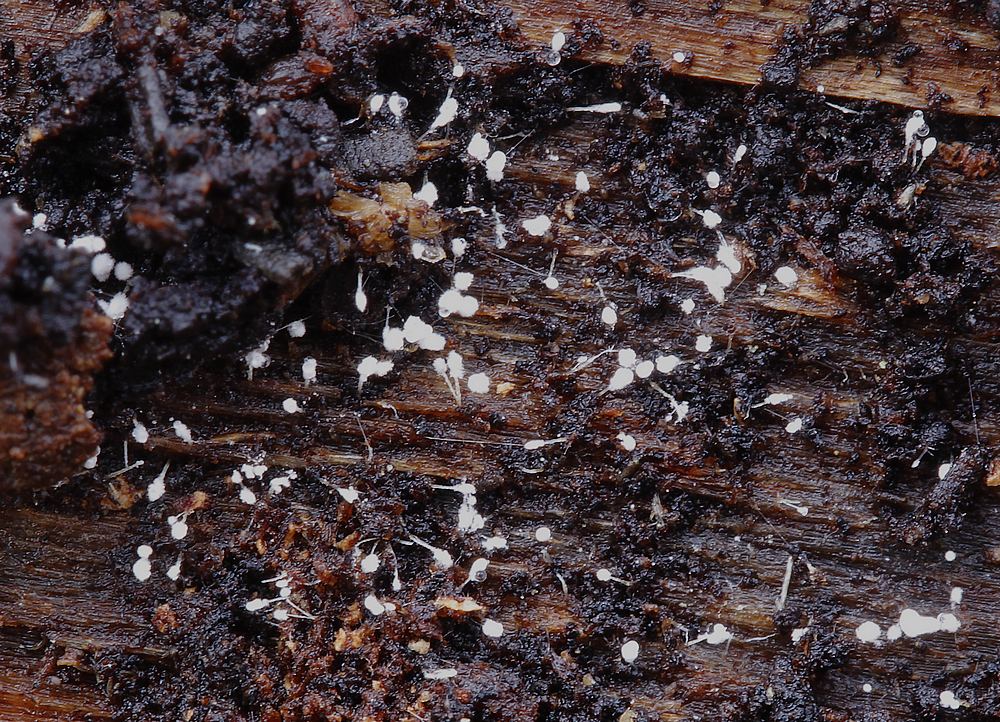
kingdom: Fungi
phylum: Ascomycota
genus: Sphaeridium
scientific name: Sphaeridium candidulum
